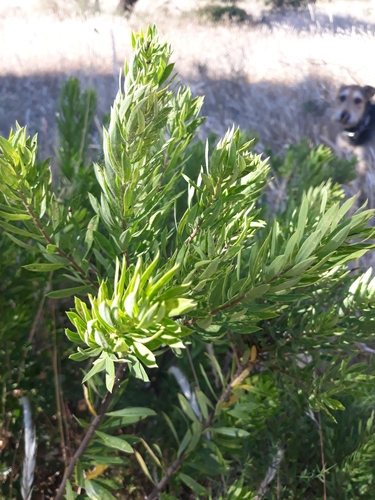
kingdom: Plantae
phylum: Tracheophyta
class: Magnoliopsida
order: Malvales
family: Thymelaeaceae
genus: Daphne
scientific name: Daphne gnidium
